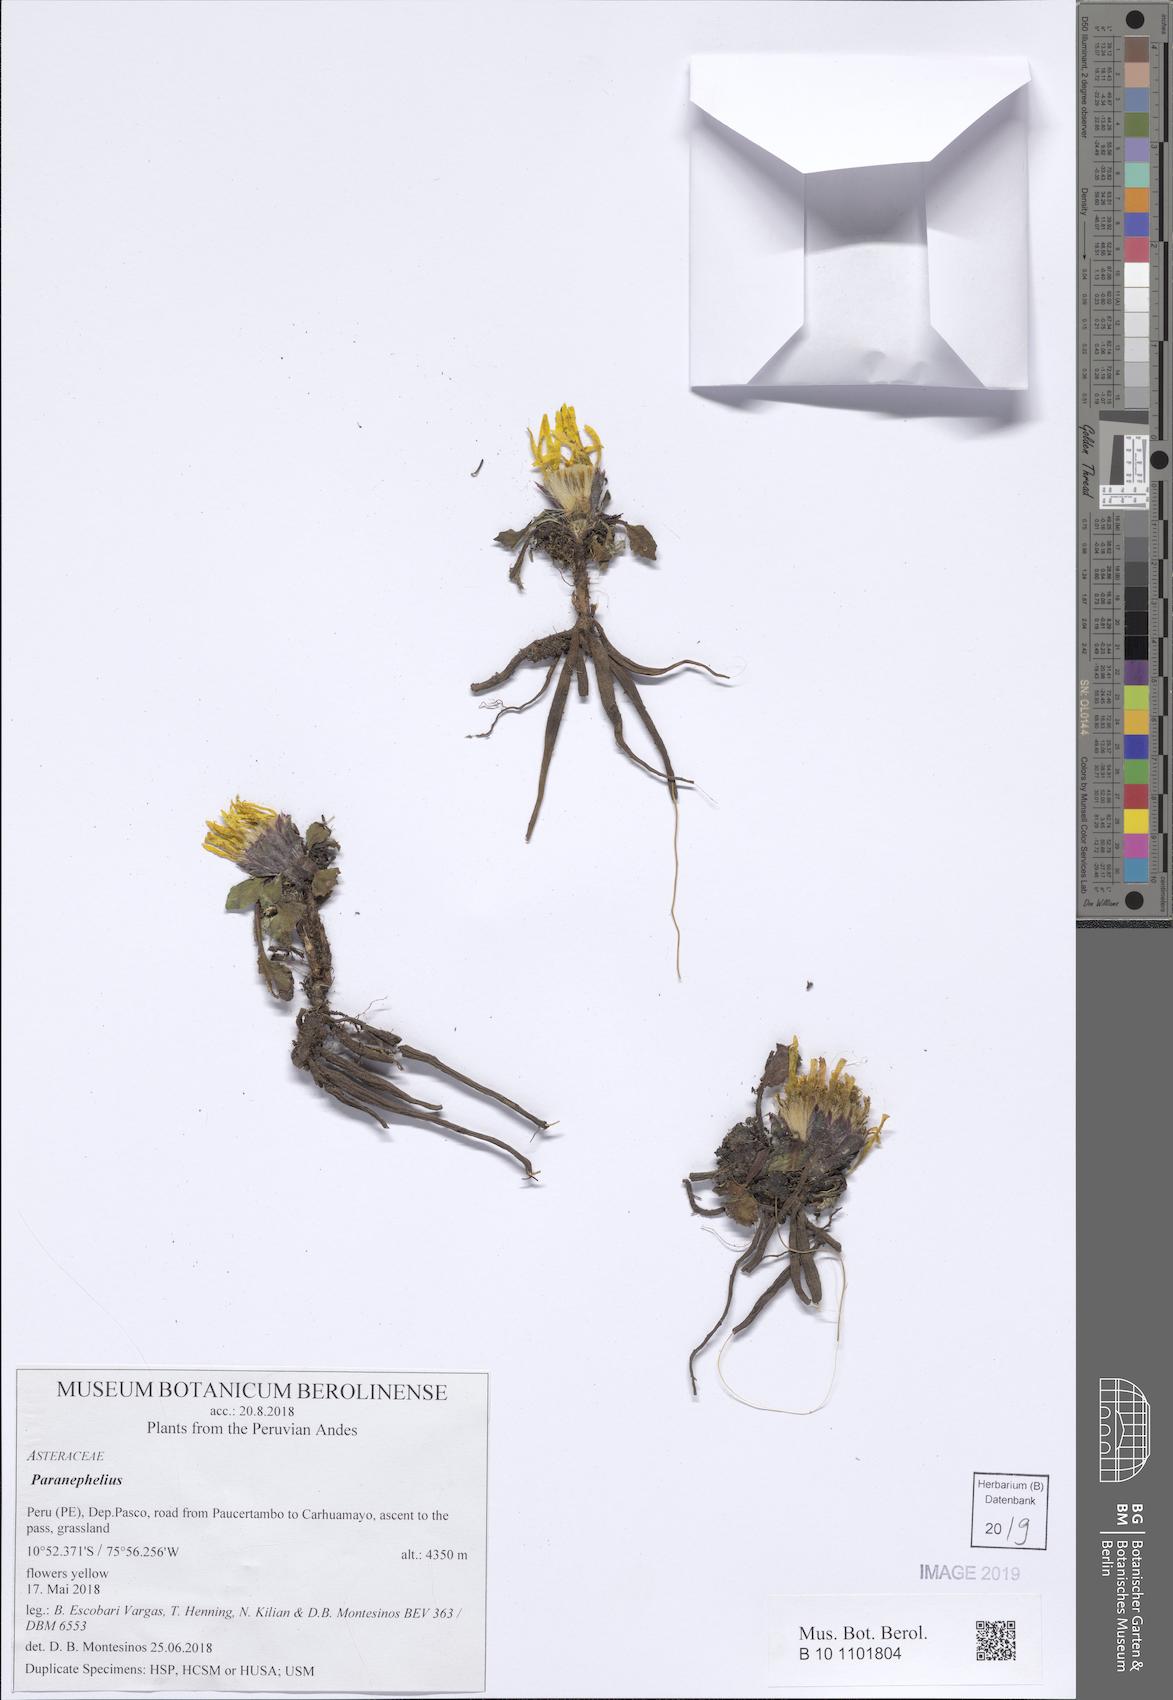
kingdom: Plantae
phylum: Tracheophyta
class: Magnoliopsida
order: Asterales
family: Asteraceae
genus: Paranephelius
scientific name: Paranephelius
